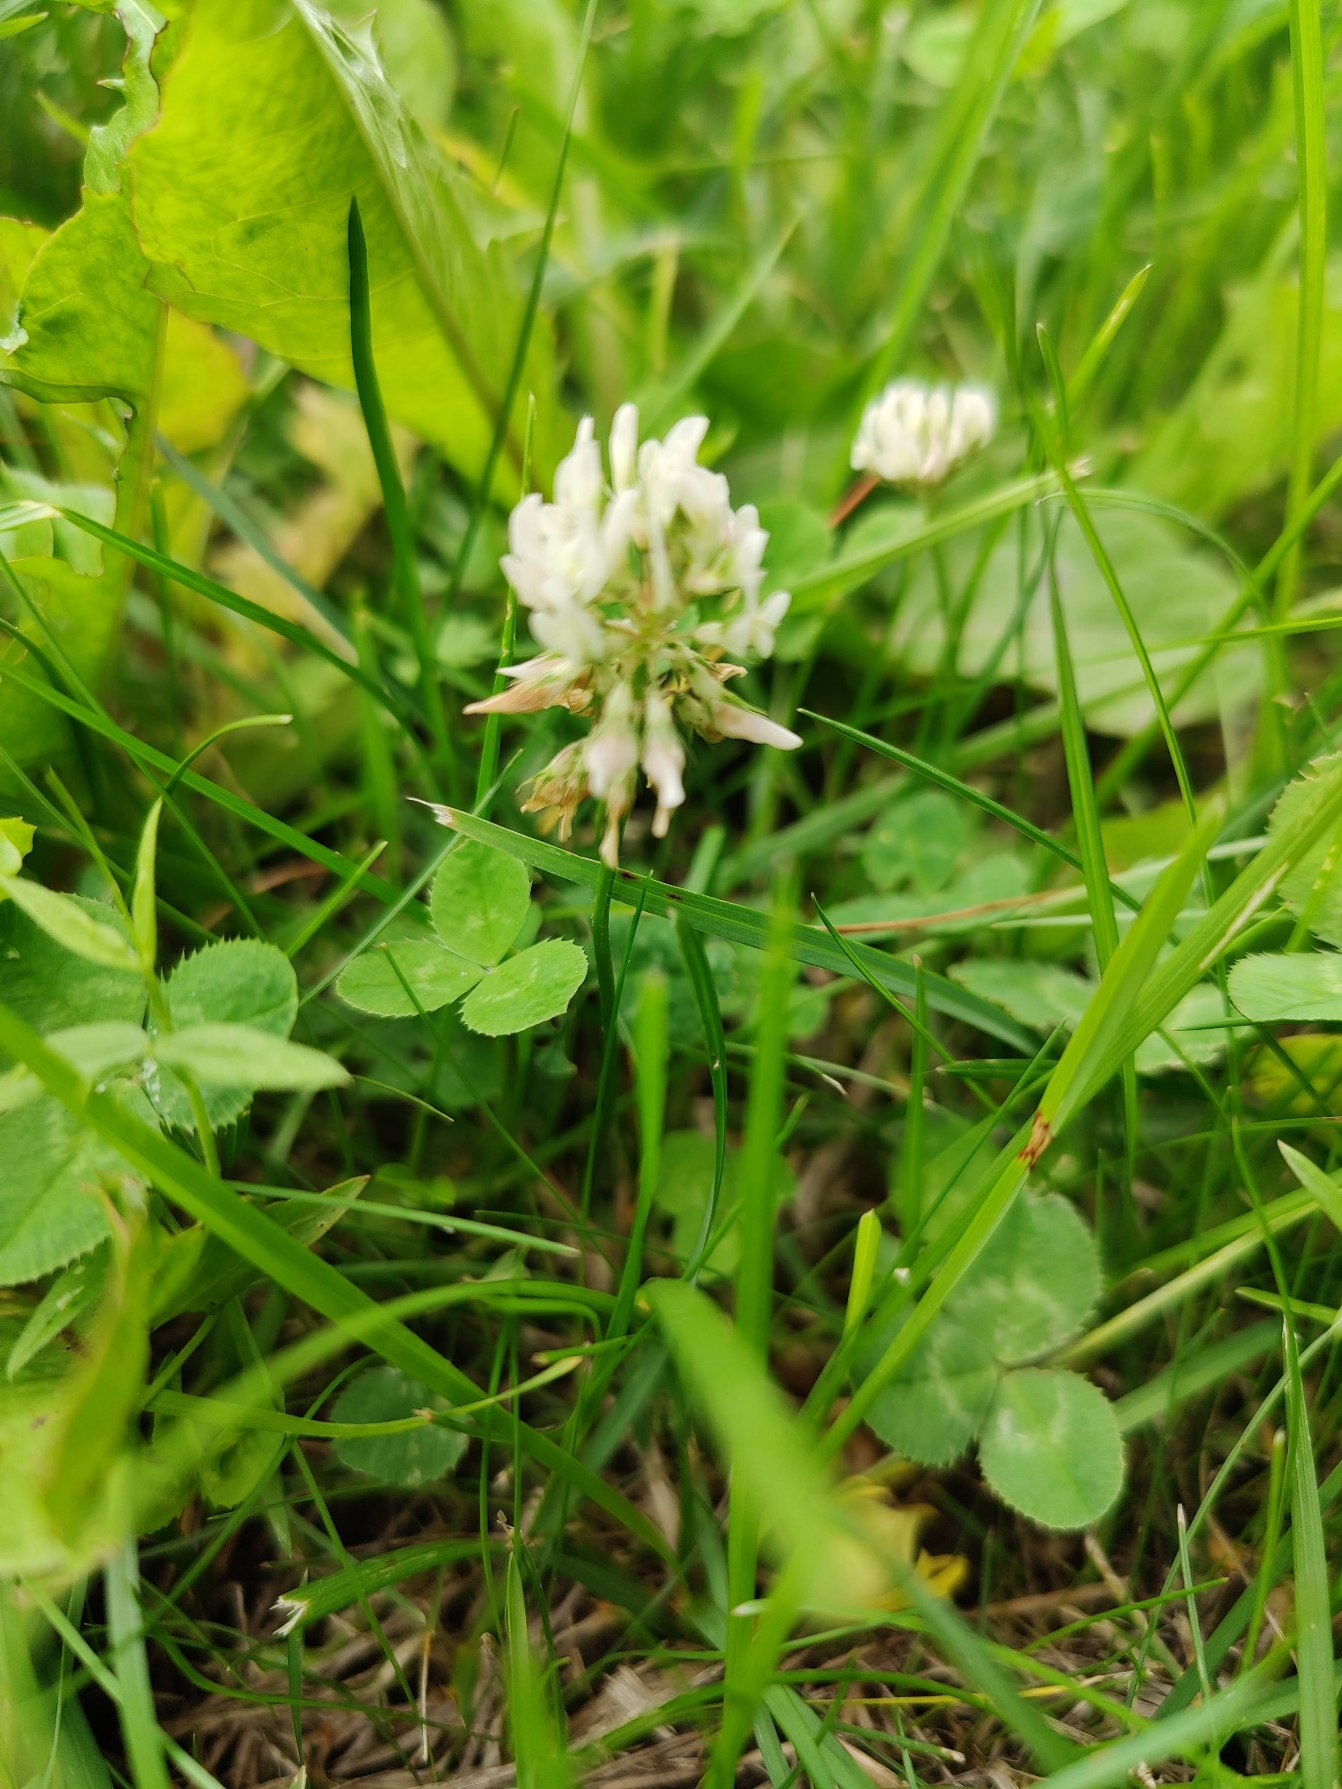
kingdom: Plantae
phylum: Tracheophyta
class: Magnoliopsida
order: Fabales
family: Fabaceae
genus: Trifolium
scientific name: Trifolium repens
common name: Hvid-kløver
